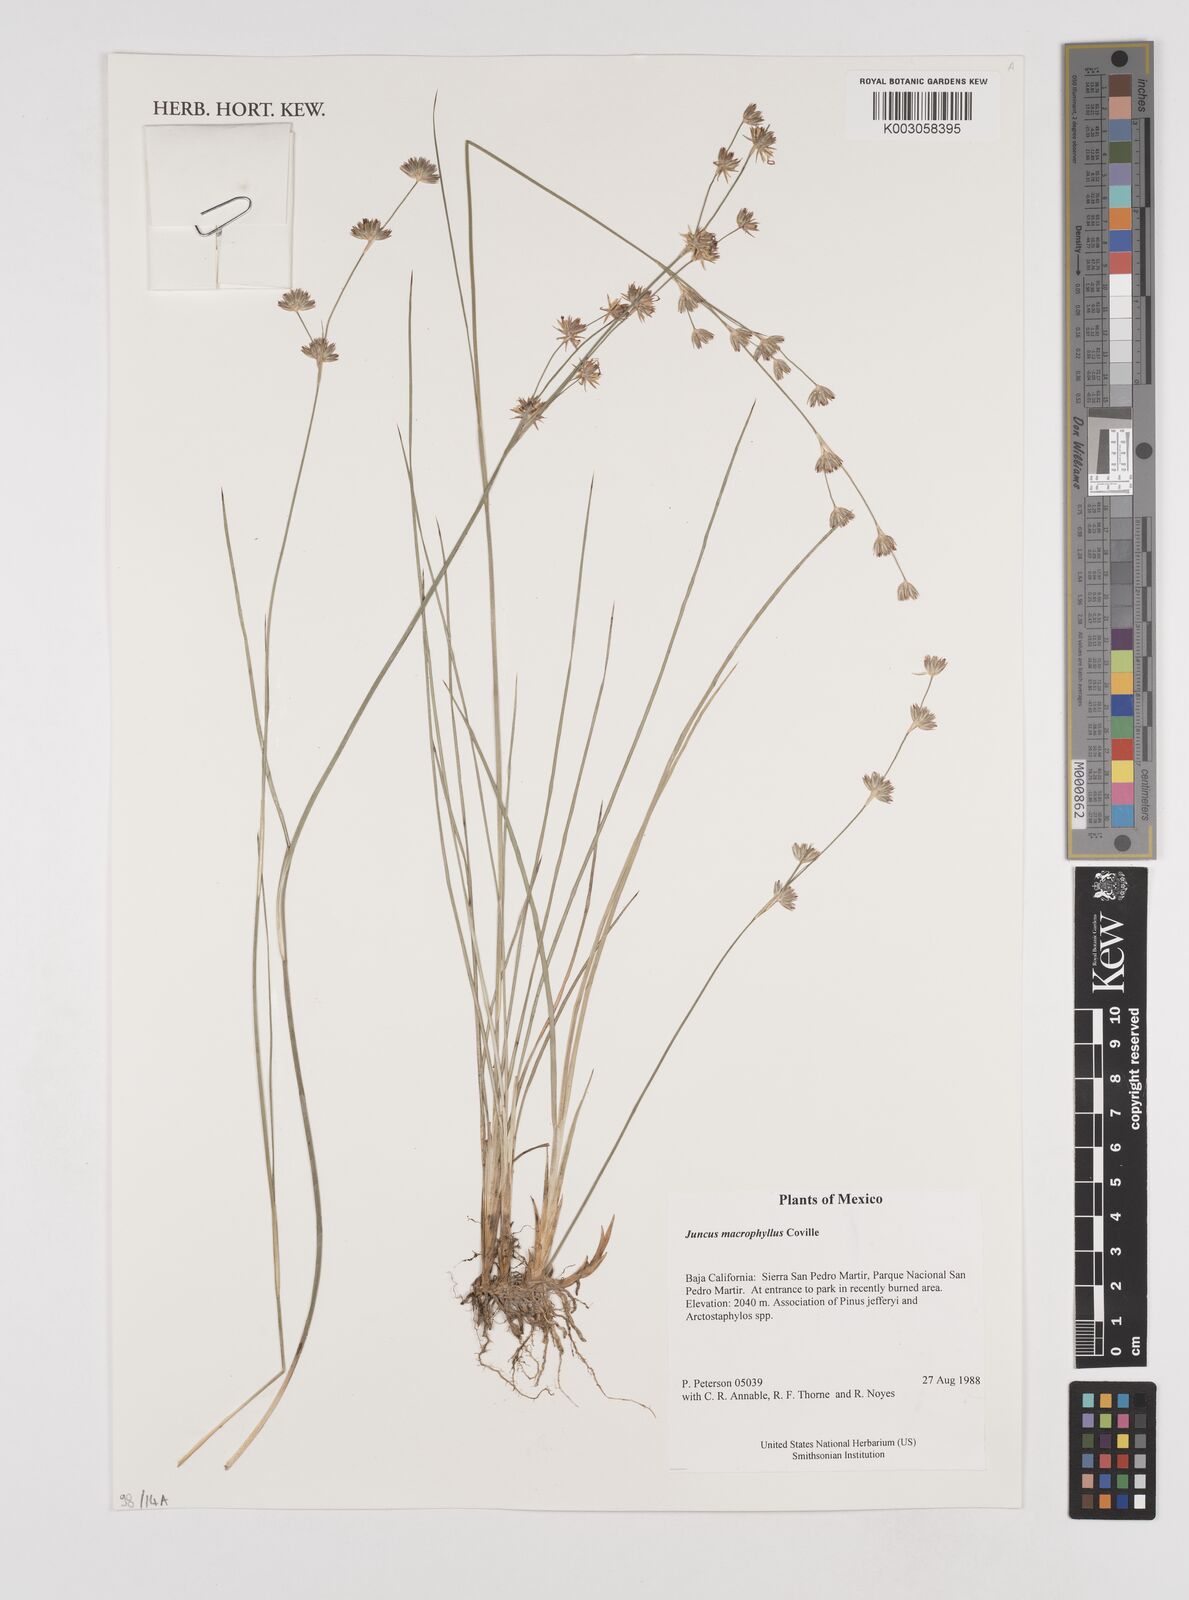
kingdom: Plantae
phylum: Tracheophyta
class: Liliopsida
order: Poales
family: Juncaceae
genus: Juncus
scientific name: Juncus macrophyllus
